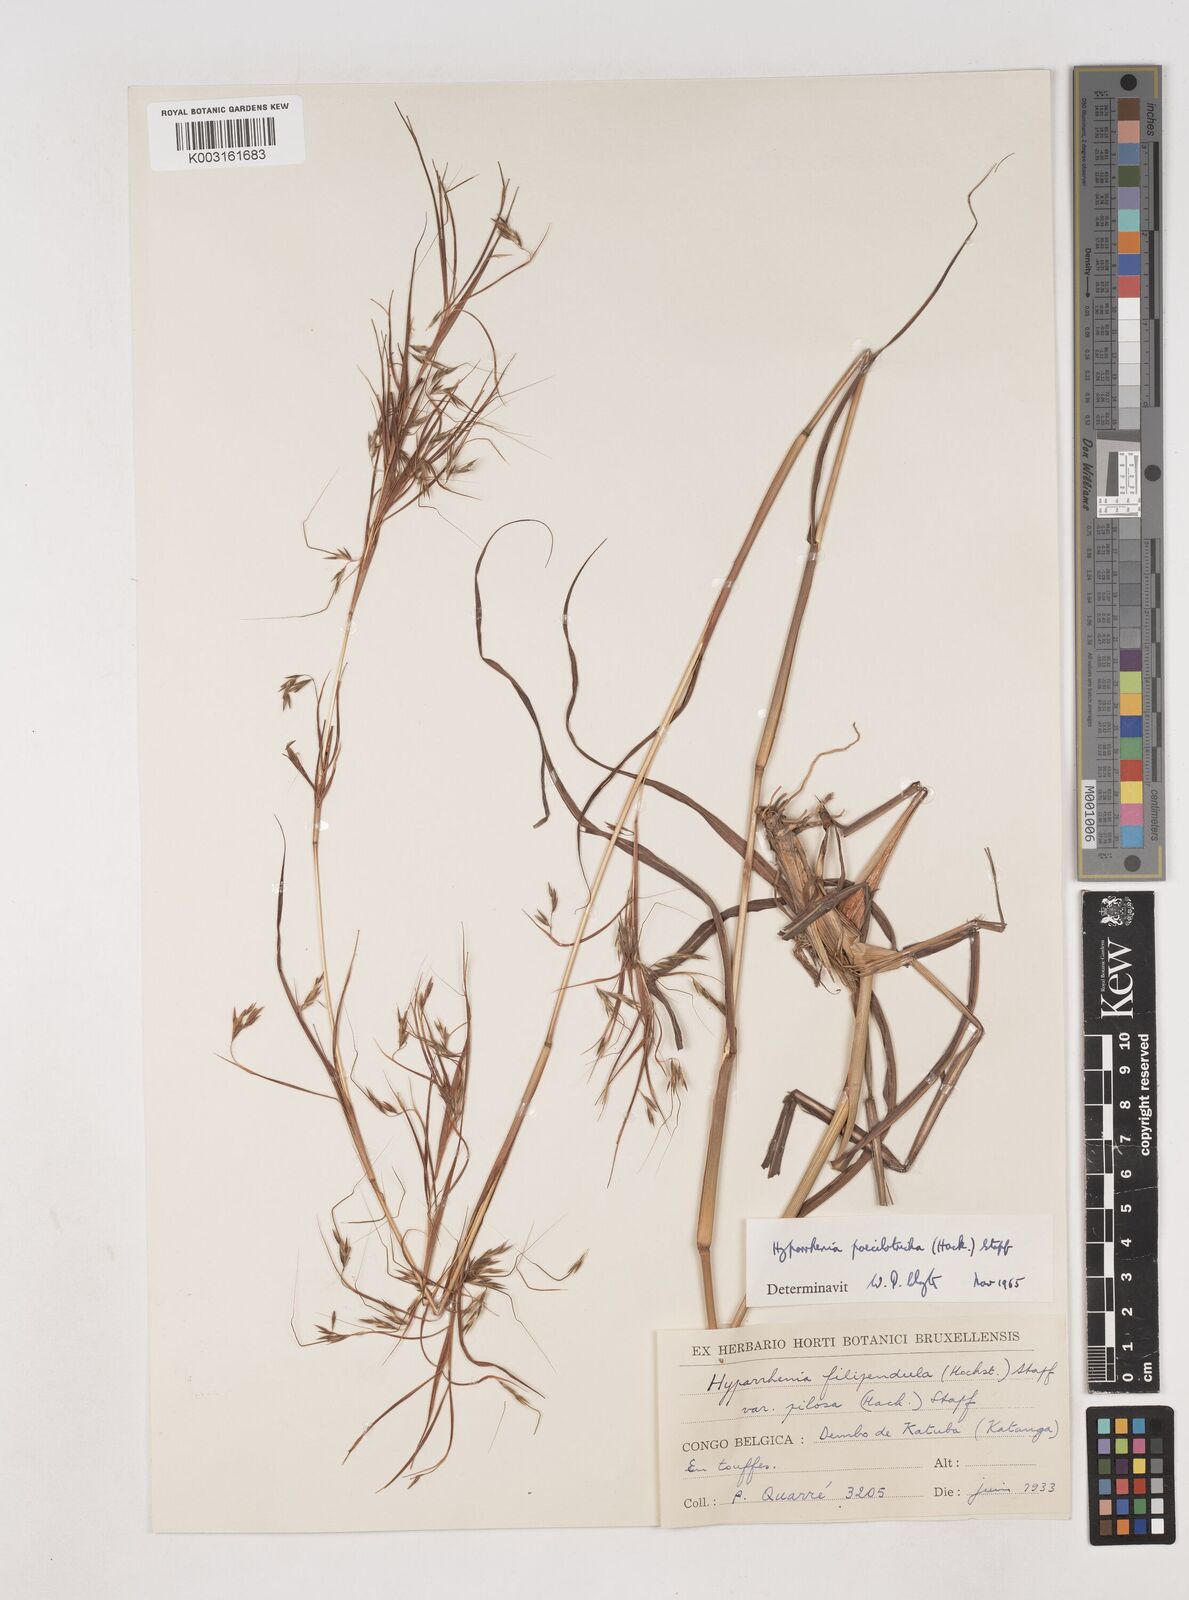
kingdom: Plantae
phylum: Tracheophyta
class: Liliopsida
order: Poales
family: Poaceae
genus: Hyparrhenia
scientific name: Hyparrhenia poecilotricha
